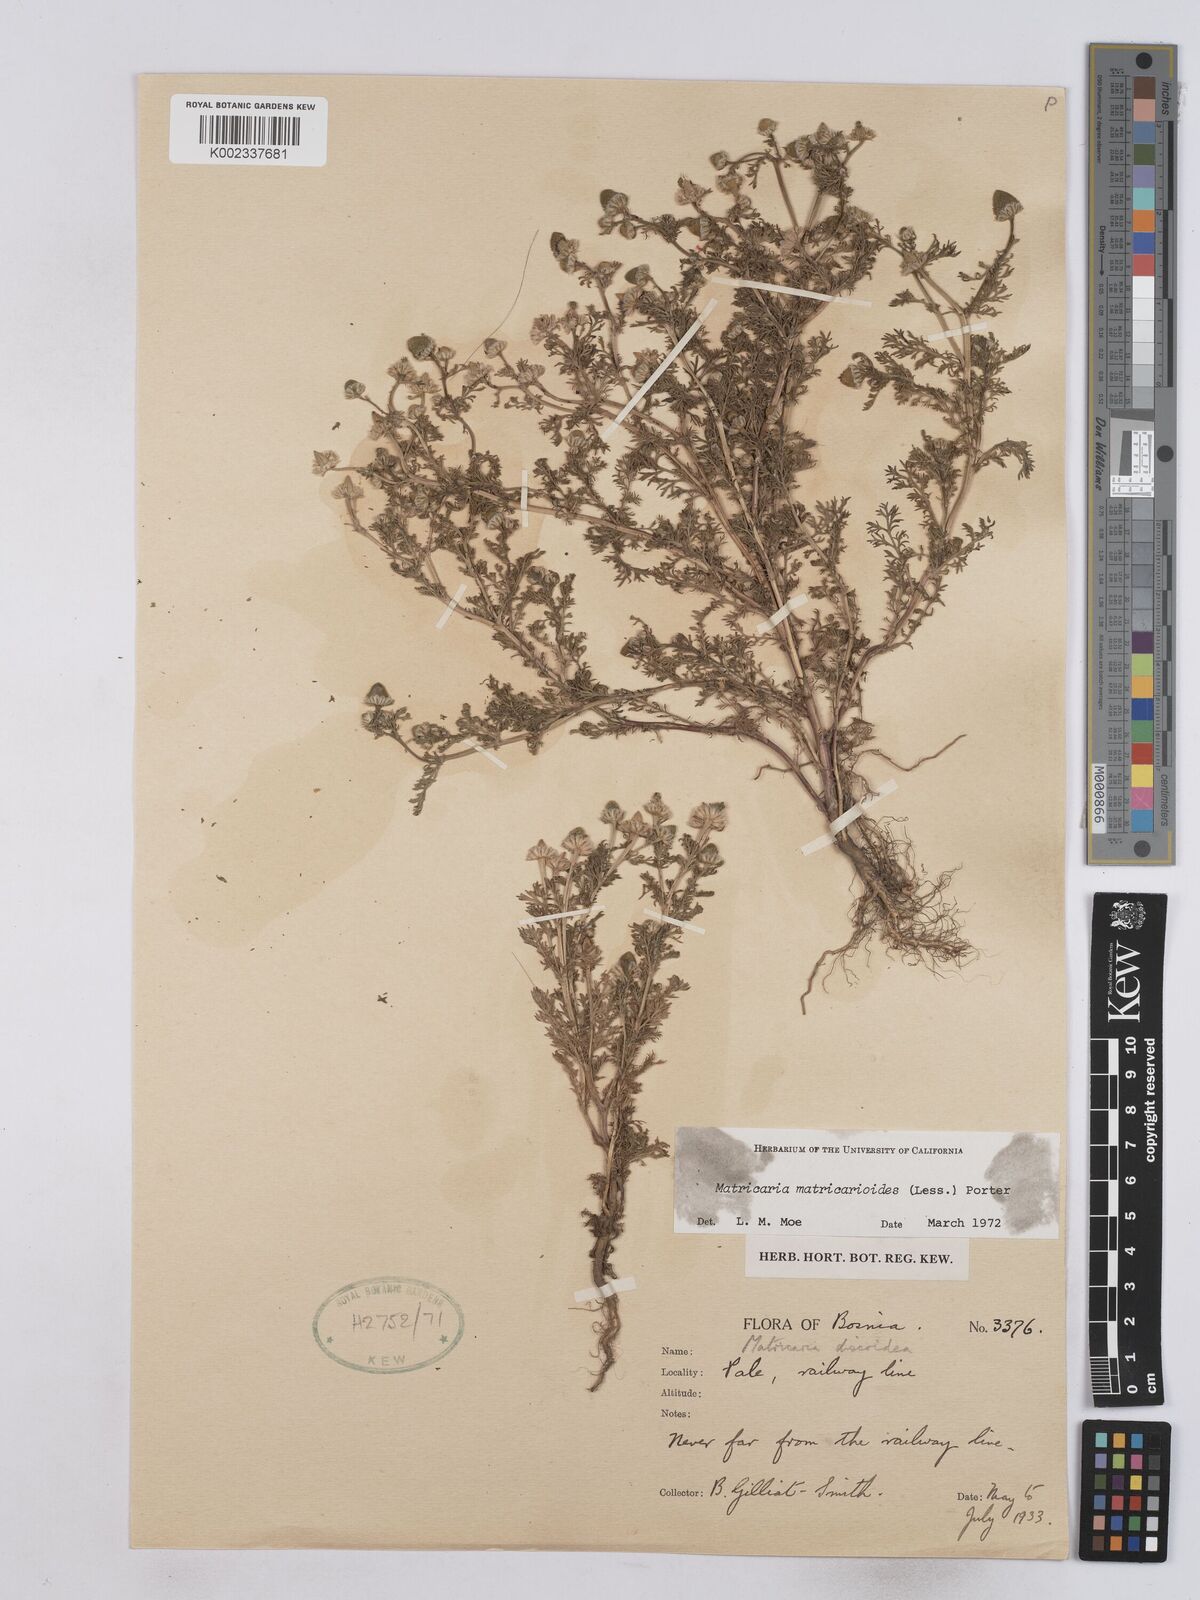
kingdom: Plantae
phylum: Tracheophyta
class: Magnoliopsida
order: Asterales
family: Asteraceae
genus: Matricaria
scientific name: Matricaria
